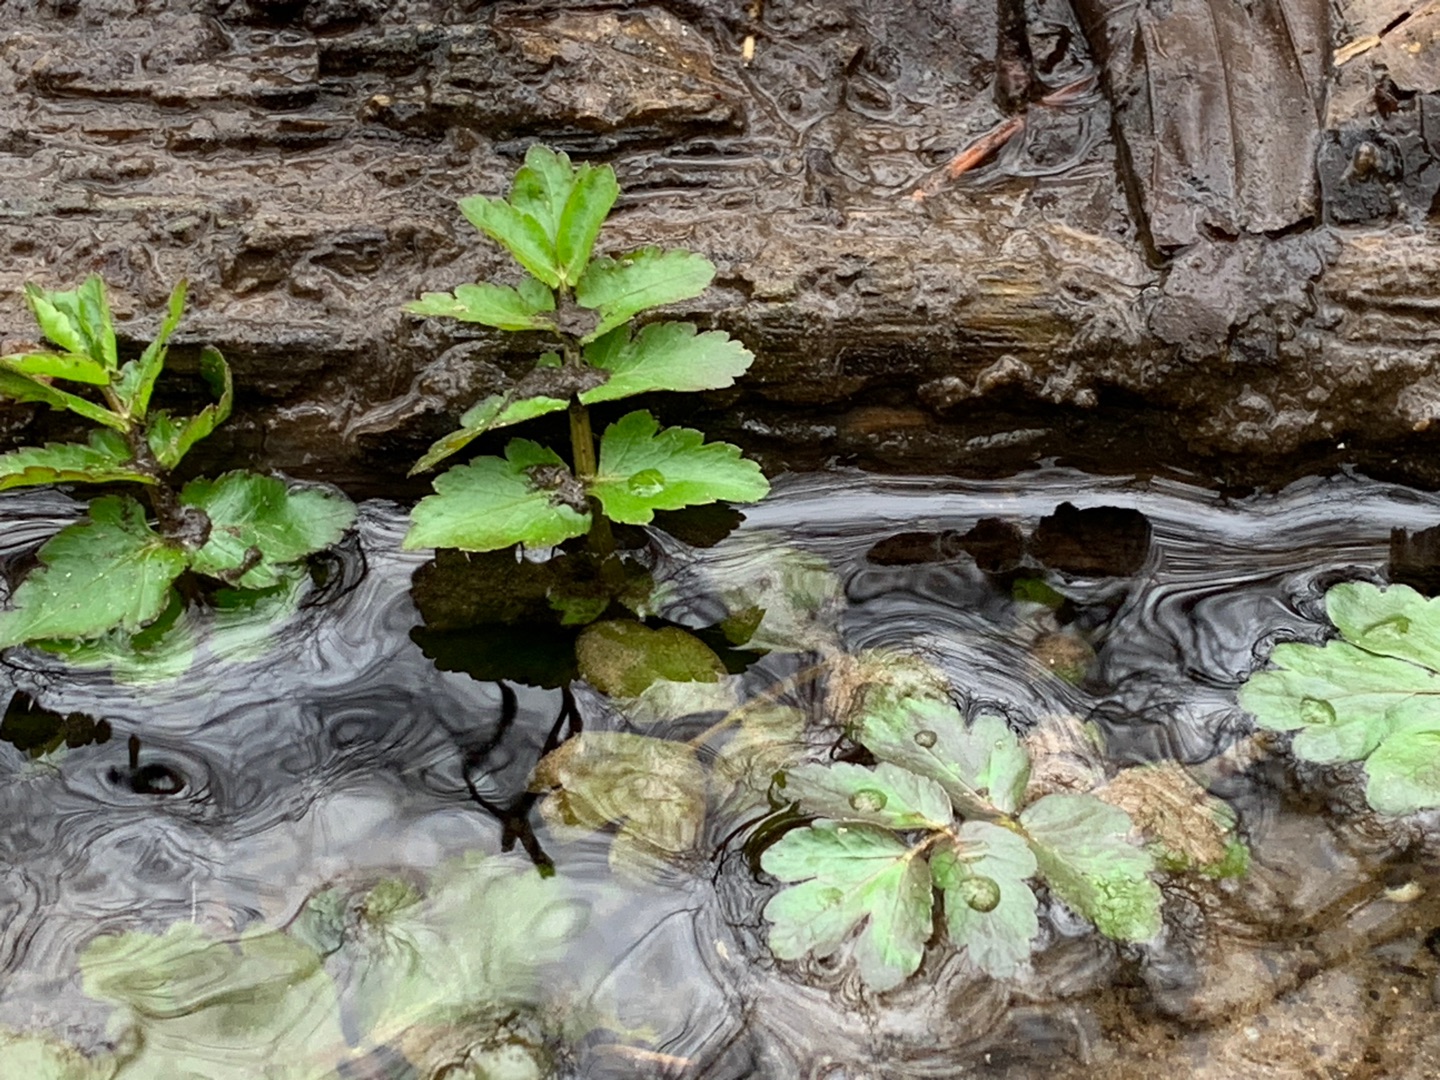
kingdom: Plantae
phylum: Tracheophyta
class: Magnoliopsida
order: Apiales
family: Apiaceae
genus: Berula
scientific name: Berula erecta
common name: Sideskærm
